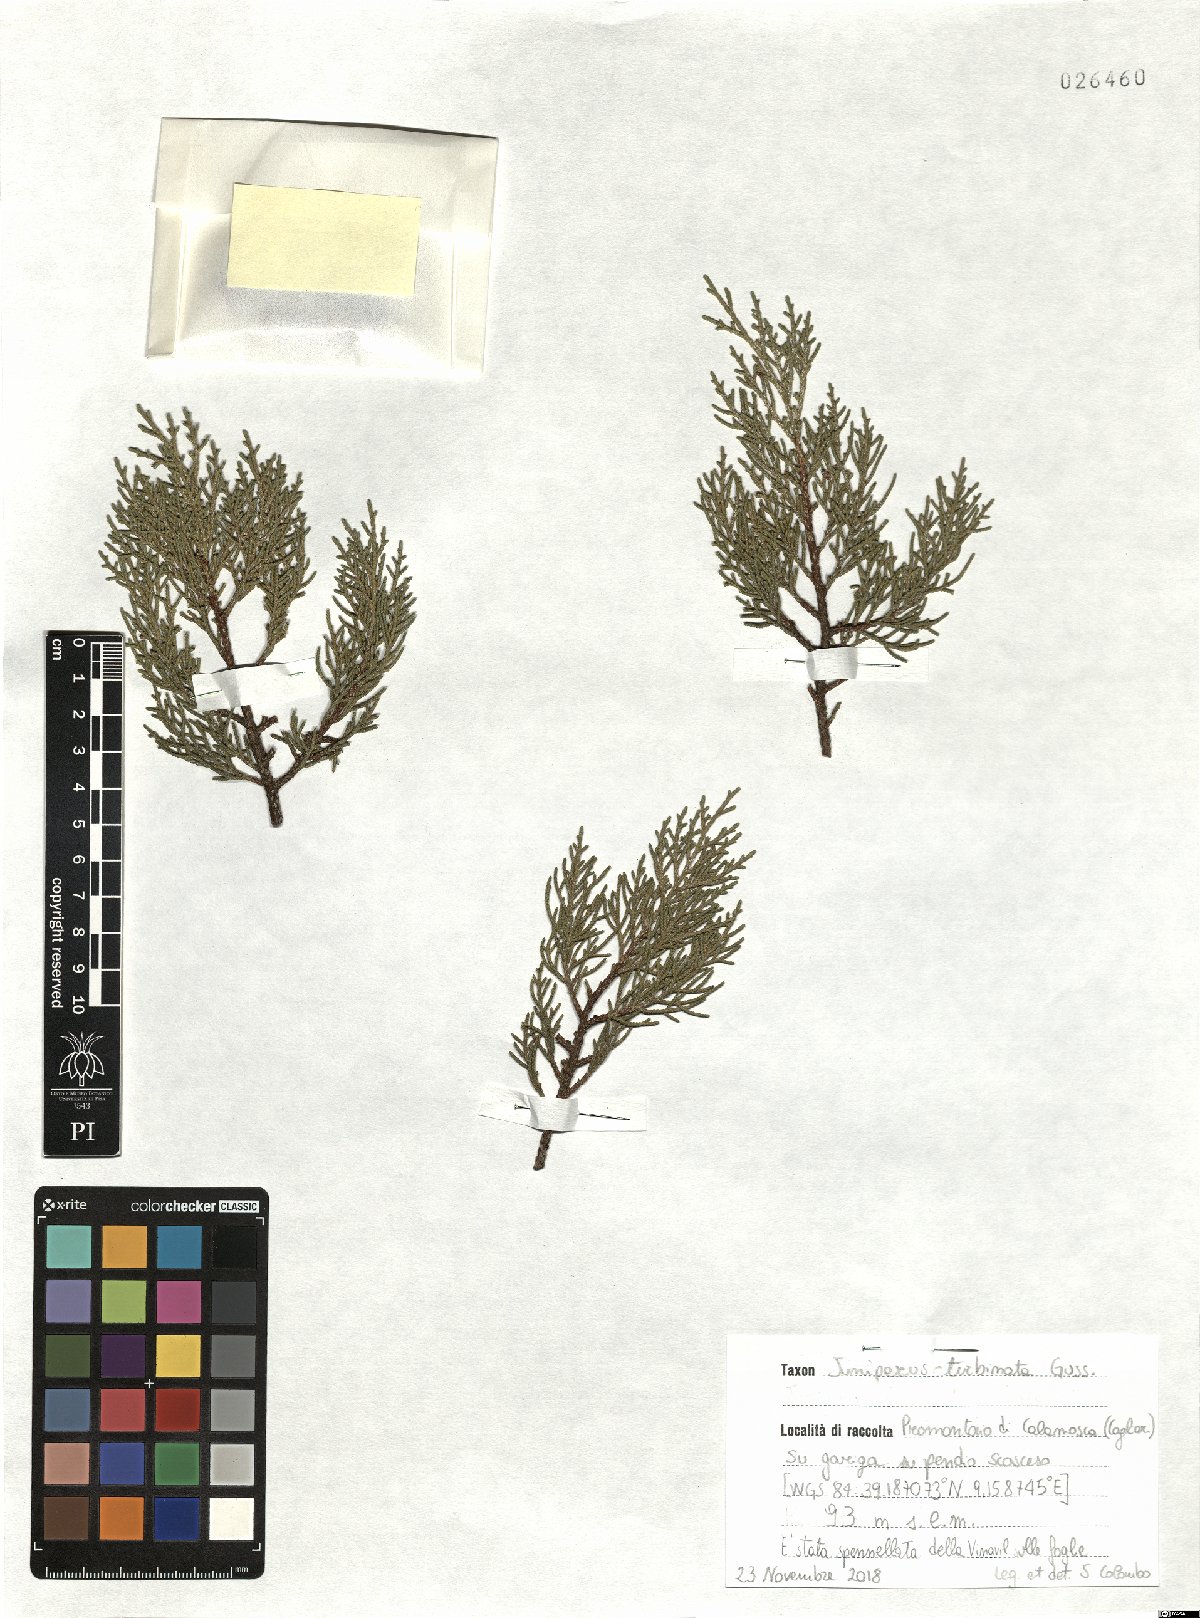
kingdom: Plantae
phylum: Tracheophyta
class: Pinopsida
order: Pinales
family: Cupressaceae
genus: Juniperus
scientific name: Juniperus phoenicea
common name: Phoenician juniper
